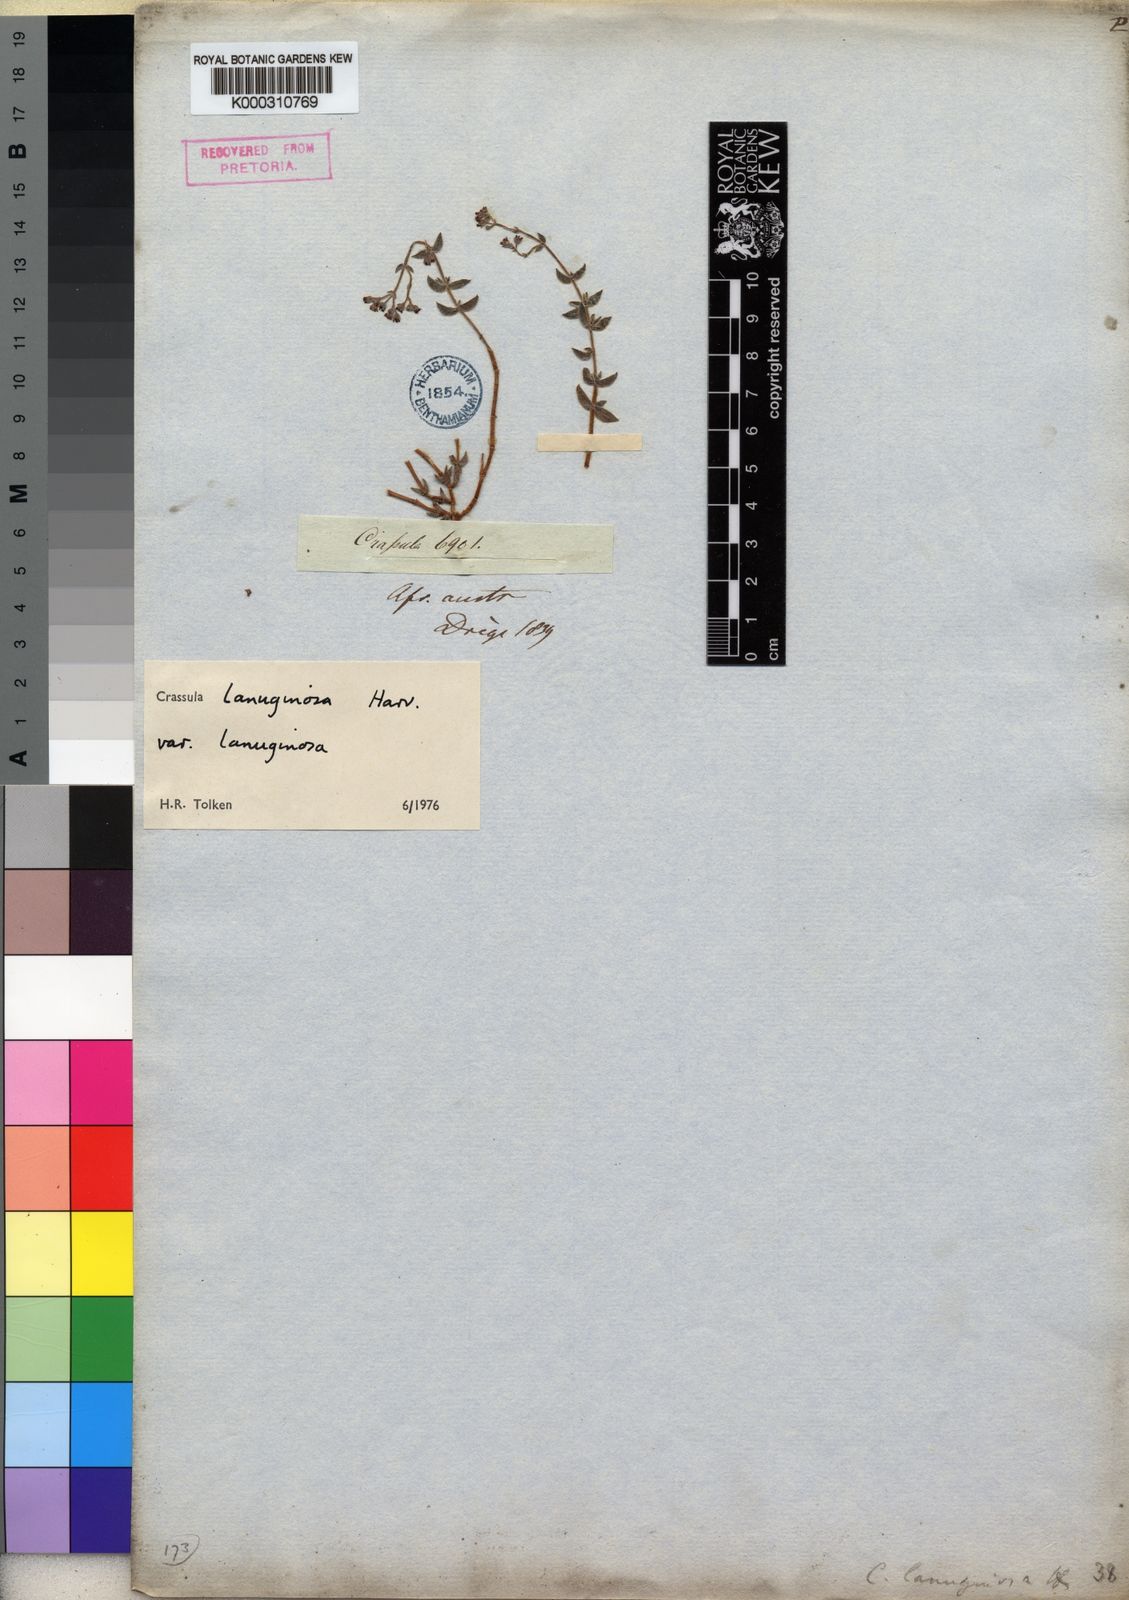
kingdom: Plantae
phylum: Tracheophyta
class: Magnoliopsida
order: Saxifragales
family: Crassulaceae
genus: Crassula
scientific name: Crassula lanuginosa
